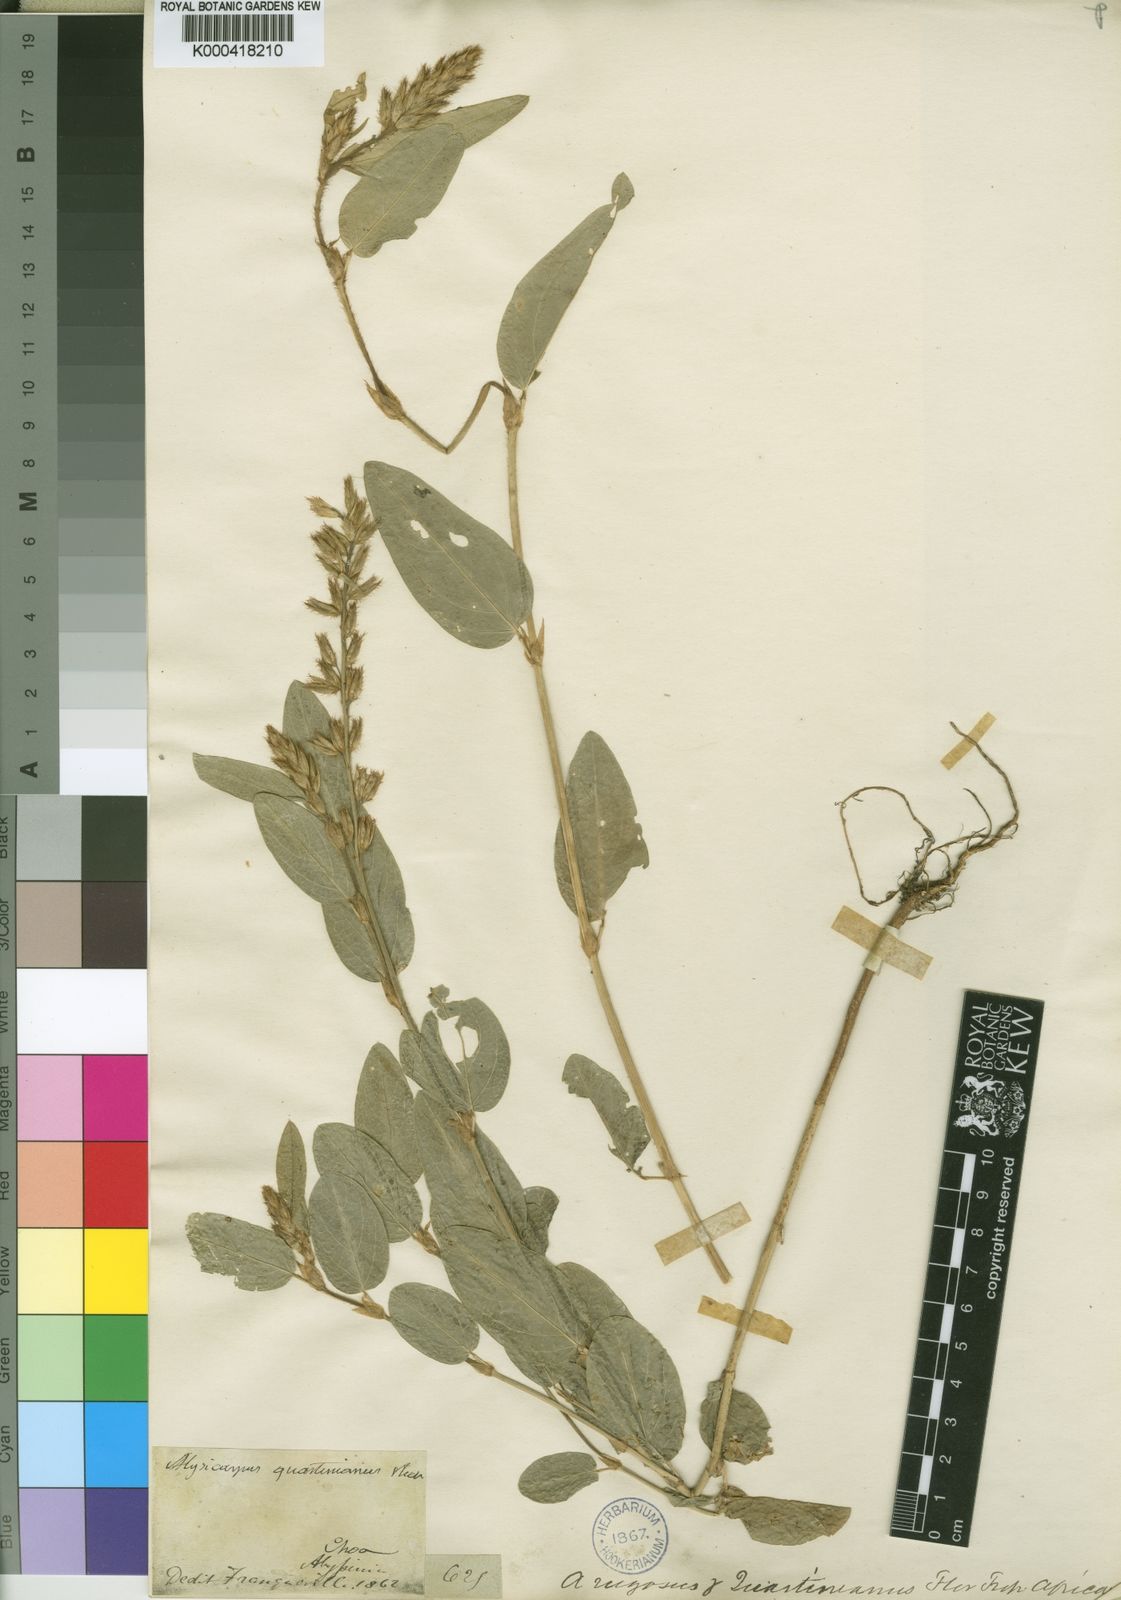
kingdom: Plantae
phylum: Tracheophyta
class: Magnoliopsida
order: Fabales
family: Fabaceae
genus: Alysicarpus
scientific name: Alysicarpus quartinianus
